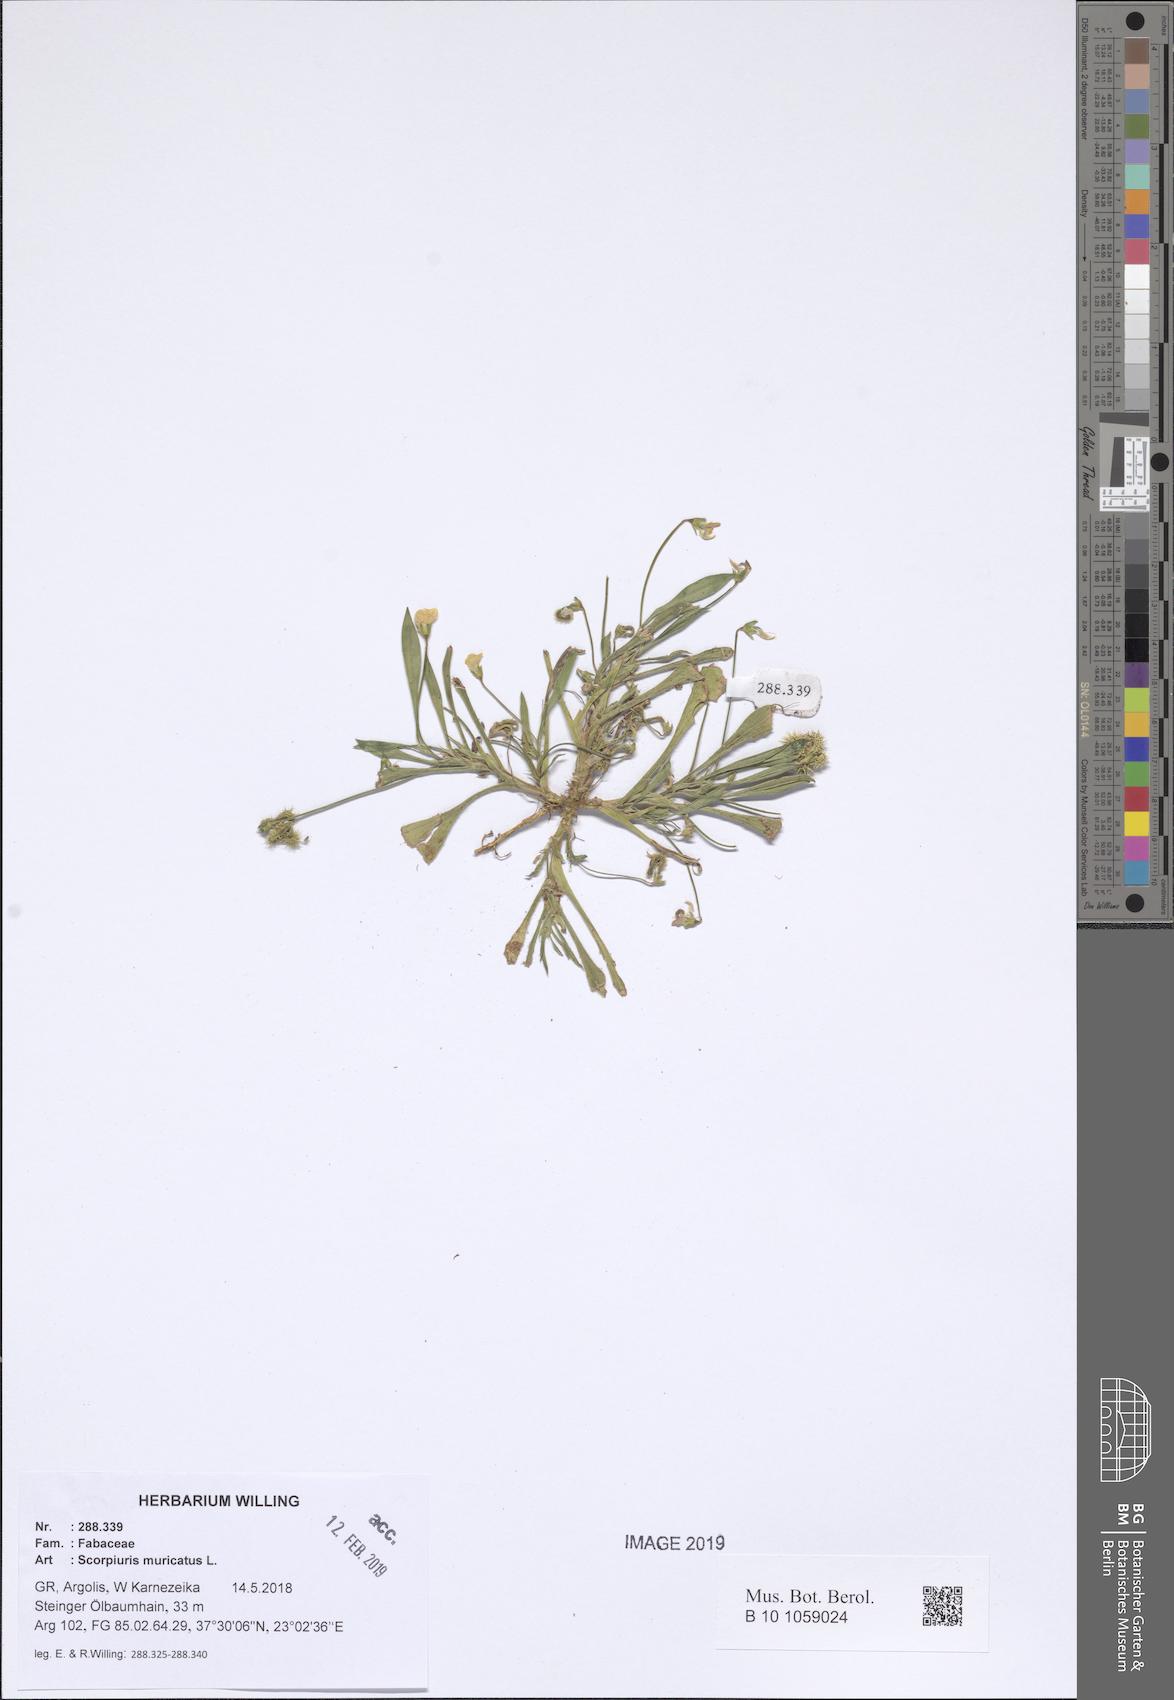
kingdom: Plantae
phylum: Tracheophyta
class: Magnoliopsida
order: Fabales
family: Fabaceae
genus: Scorpiurus
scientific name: Scorpiurus muricatus
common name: Caterpillar-plant
